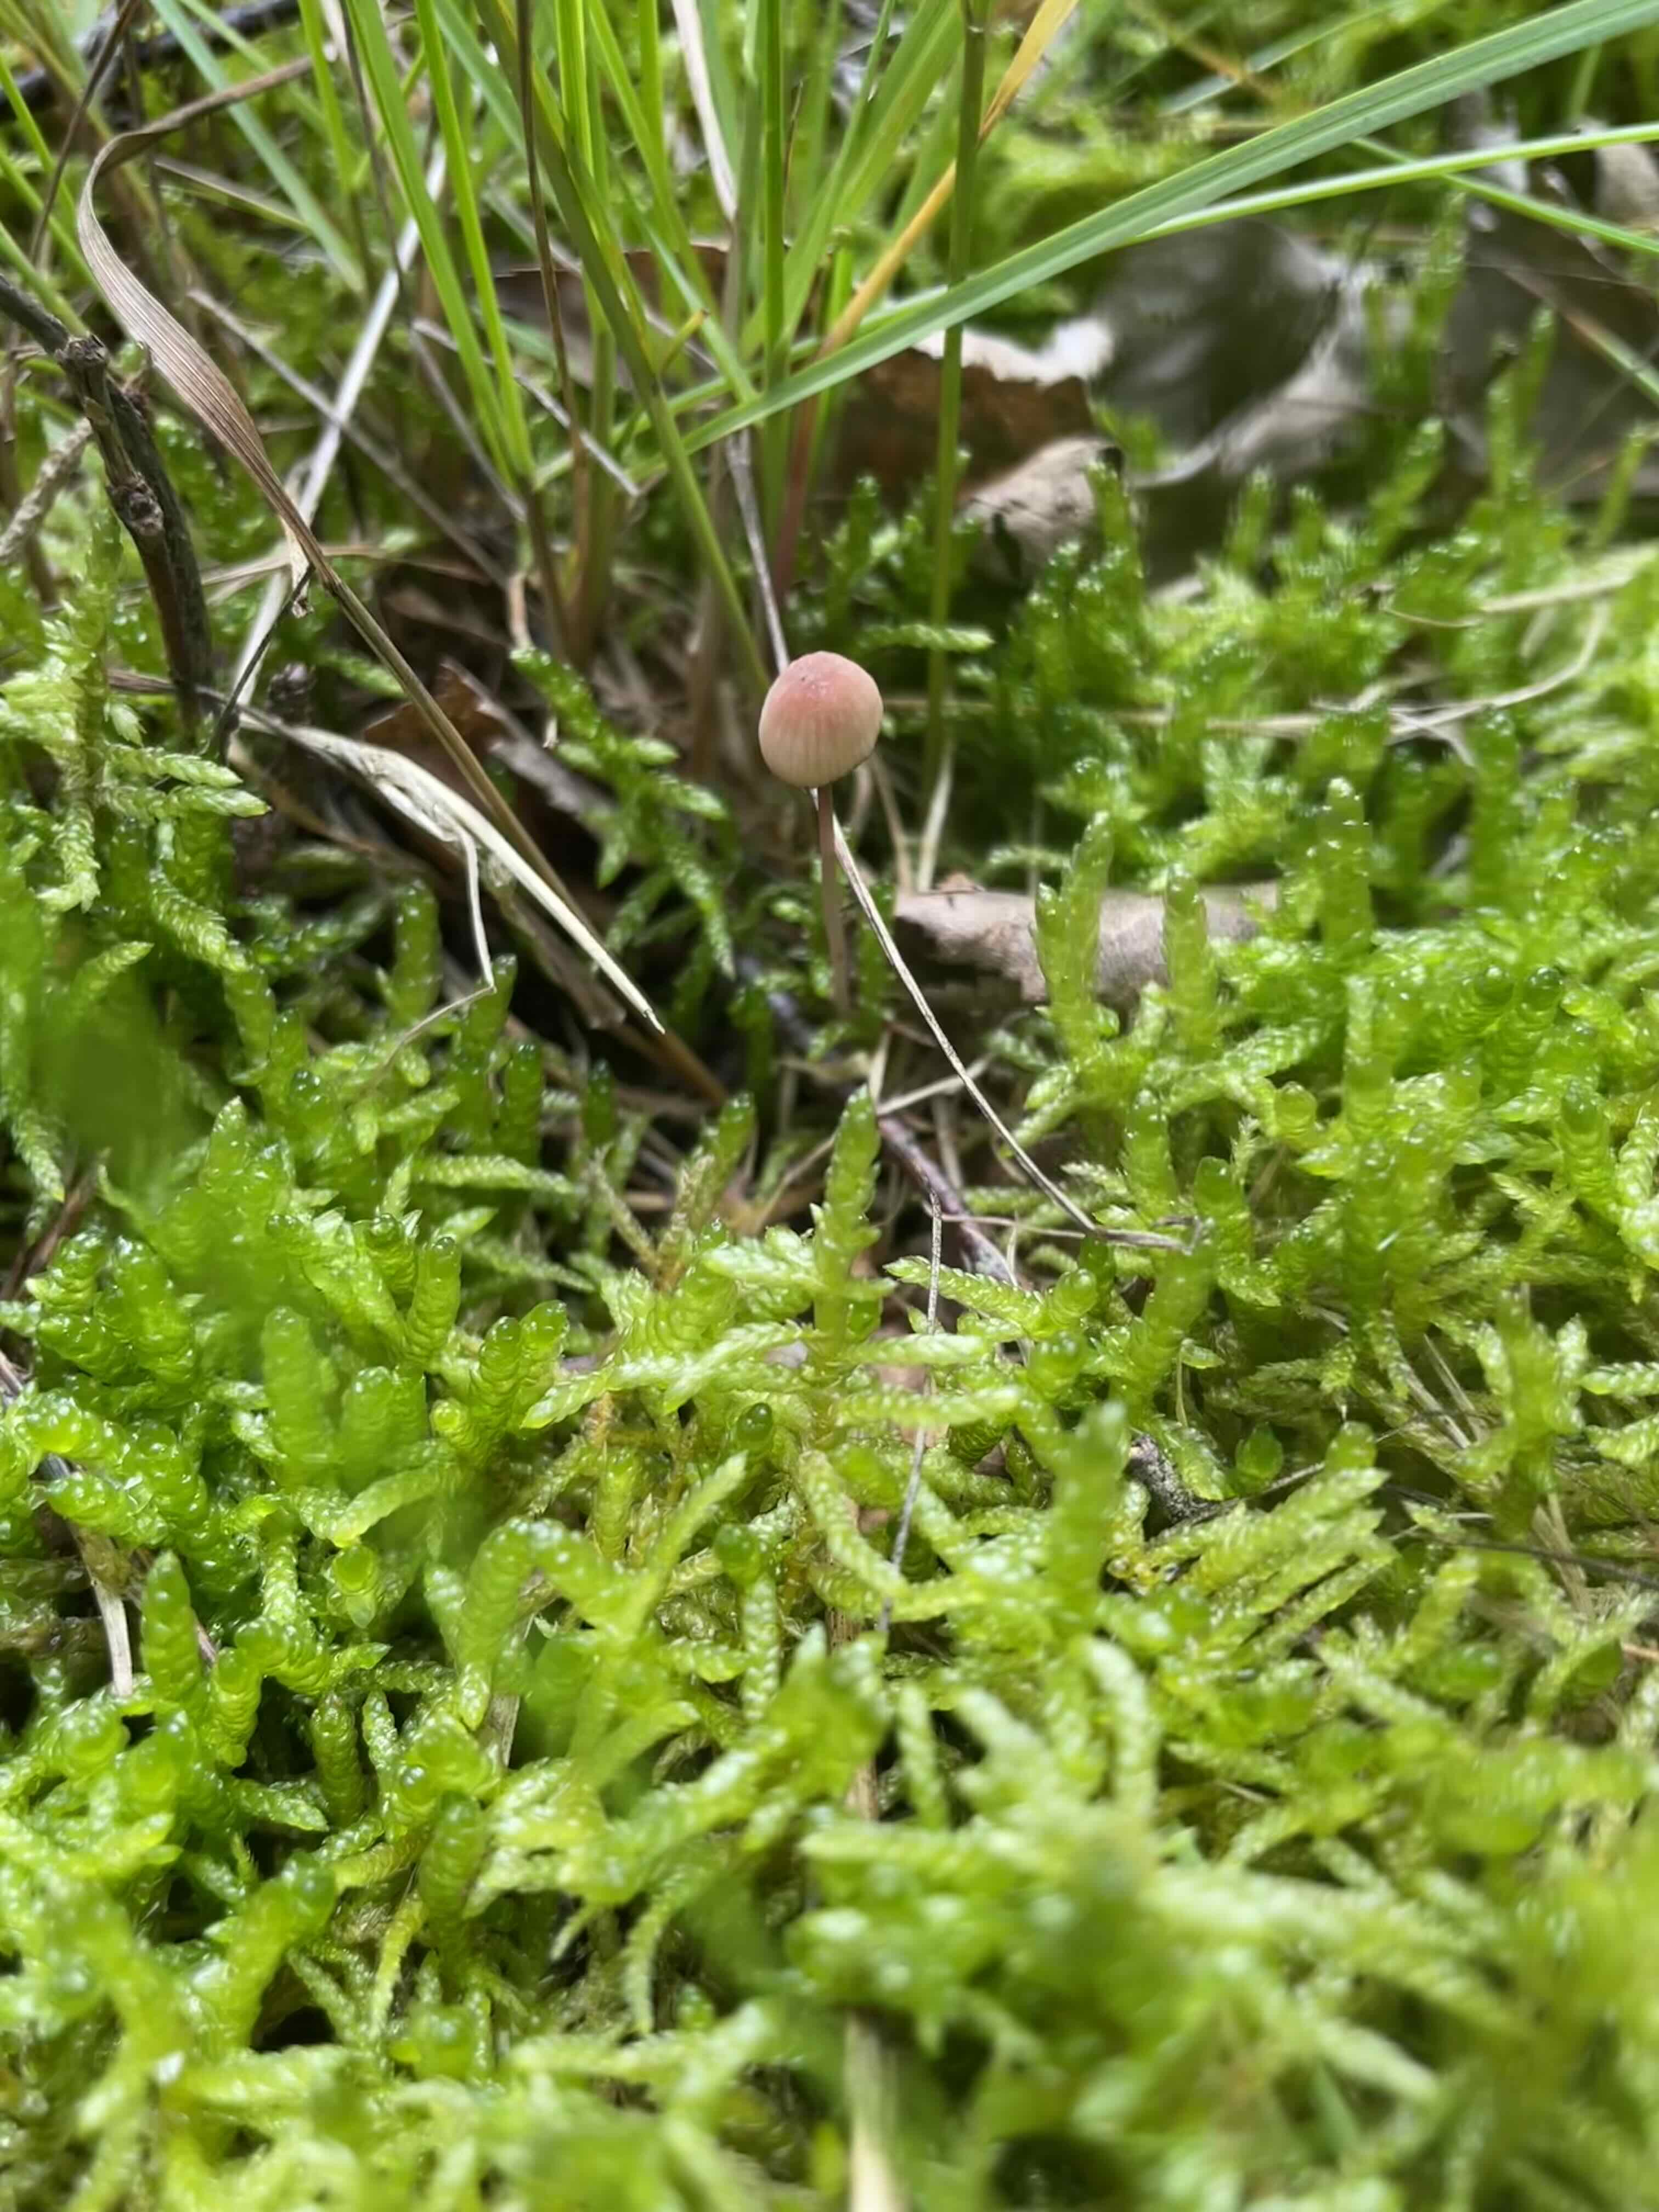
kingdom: Fungi
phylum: Basidiomycota
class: Agaricomycetes
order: Agaricales
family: Mycenaceae
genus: Mycena
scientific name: Mycena sanguinolenta
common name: rødmælket huesvamp
